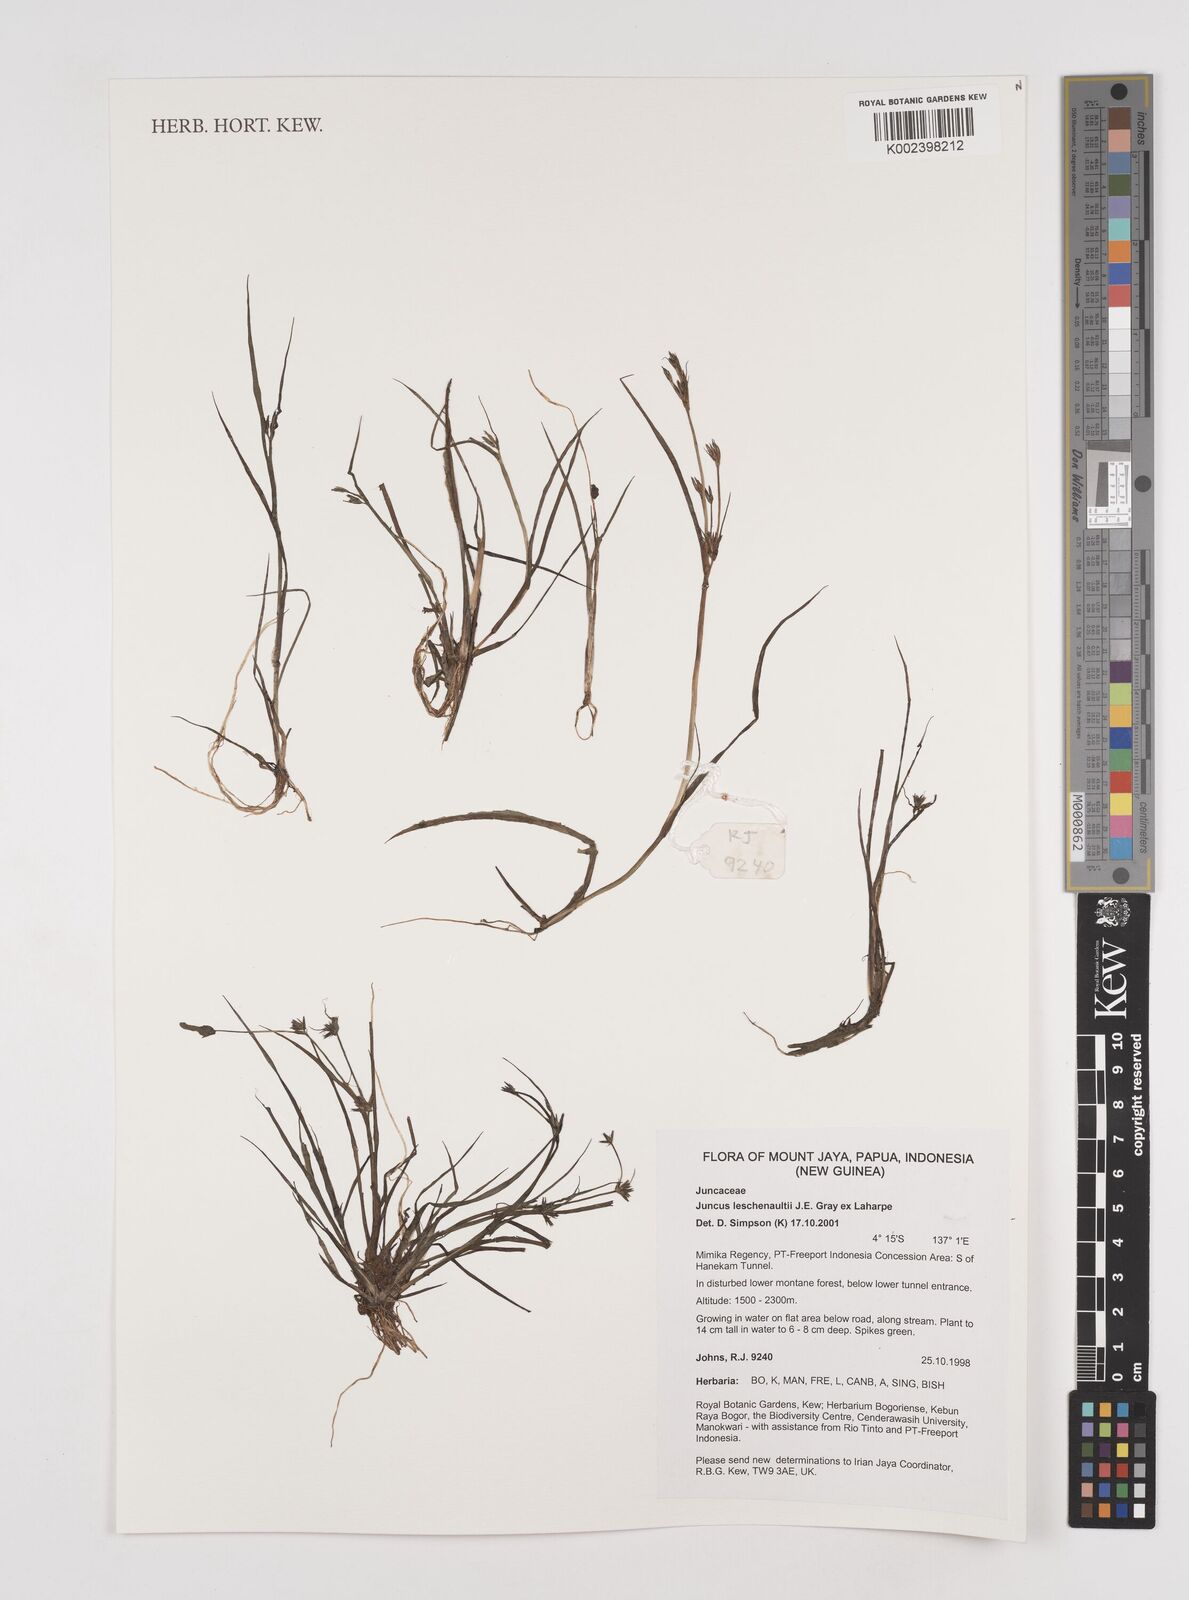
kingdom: Plantae
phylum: Tracheophyta
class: Liliopsida
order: Poales
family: Juncaceae
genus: Juncus
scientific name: Juncus prismatocarpus
